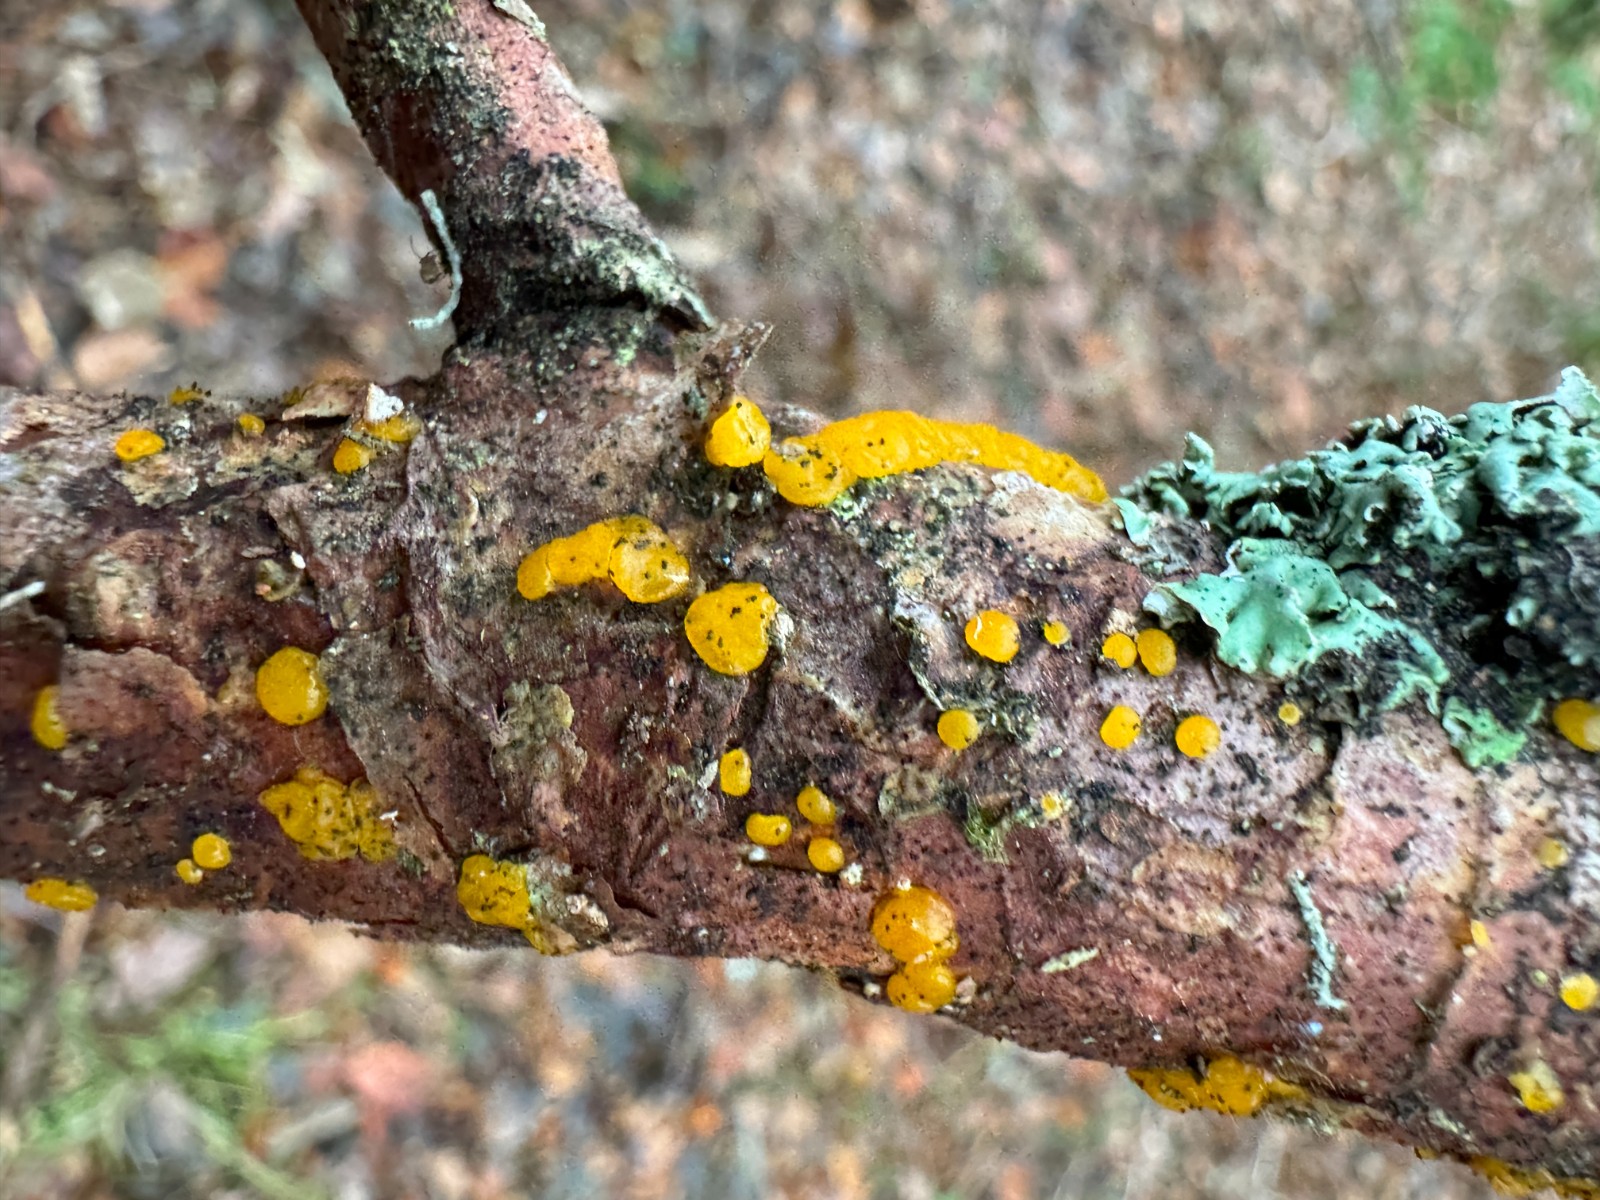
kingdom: Fungi
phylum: Basidiomycota
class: Dacrymycetes
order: Dacrymycetales
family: Dacrymycetaceae
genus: Dacrymyces
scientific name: Dacrymyces stillatus
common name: almindelig tåresvamp
